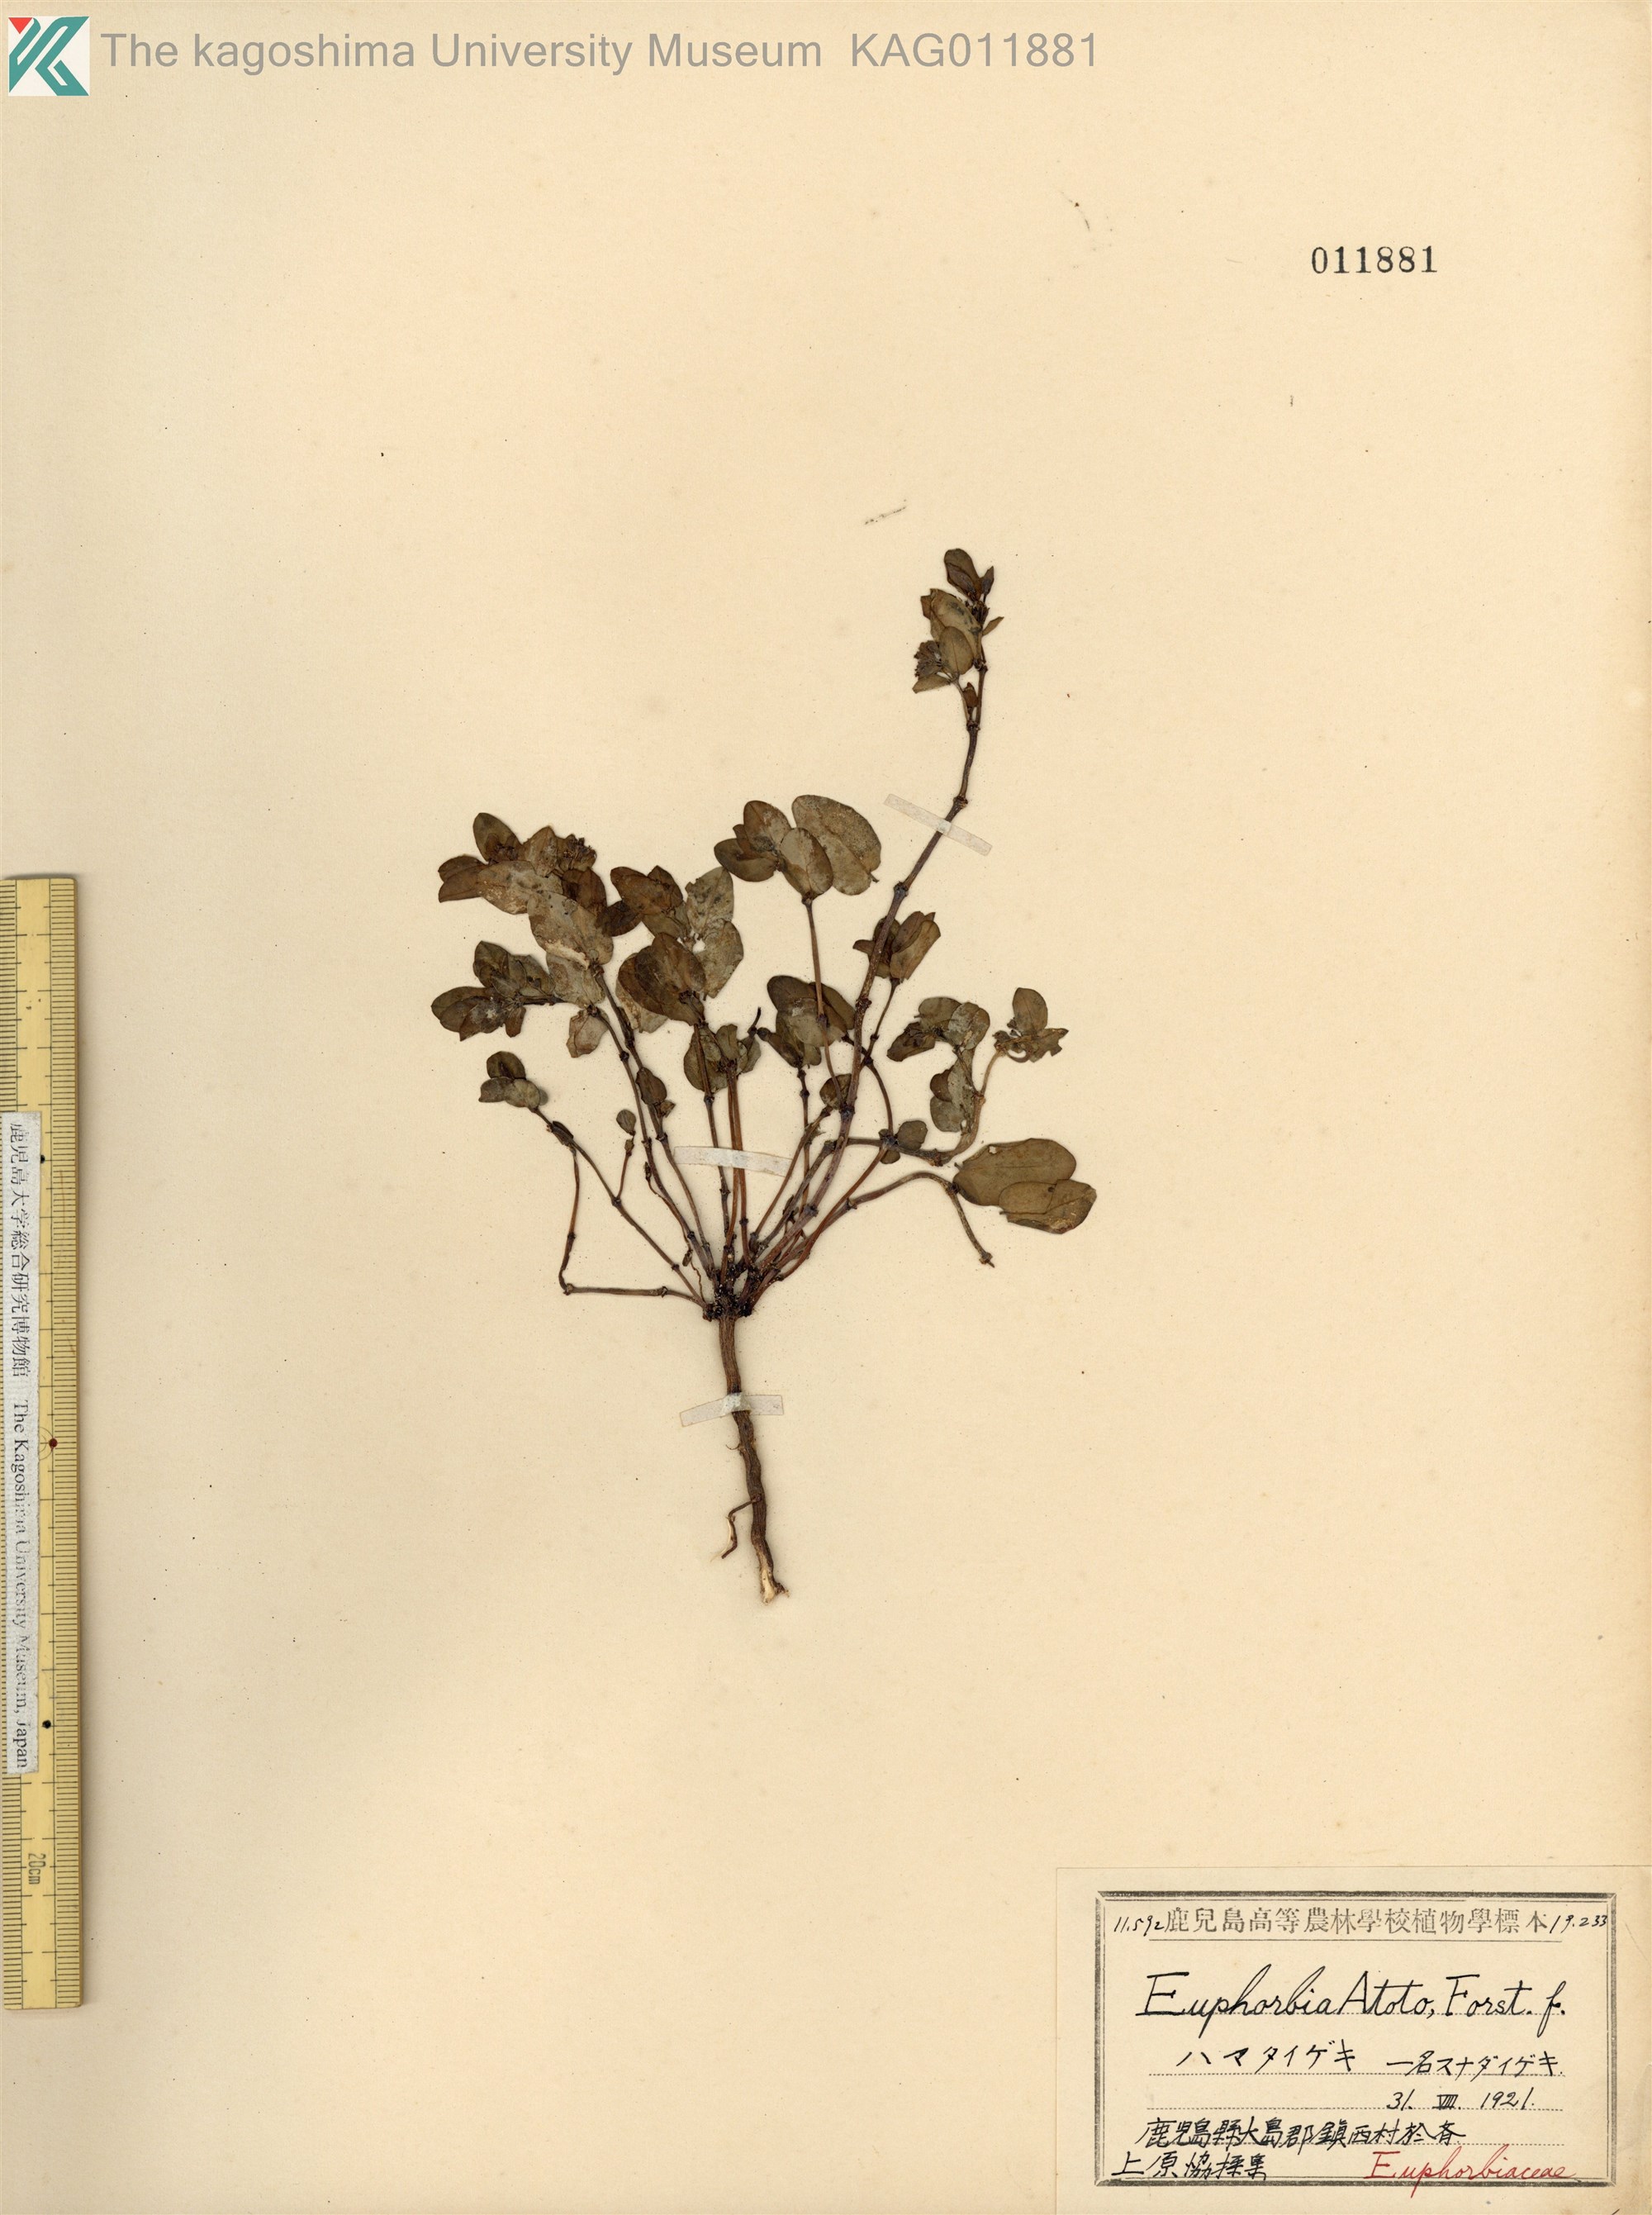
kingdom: Plantae
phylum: Tracheophyta
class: Magnoliopsida
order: Malpighiales
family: Euphorbiaceae
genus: Euphorbia
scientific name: Euphorbia chamissonis
